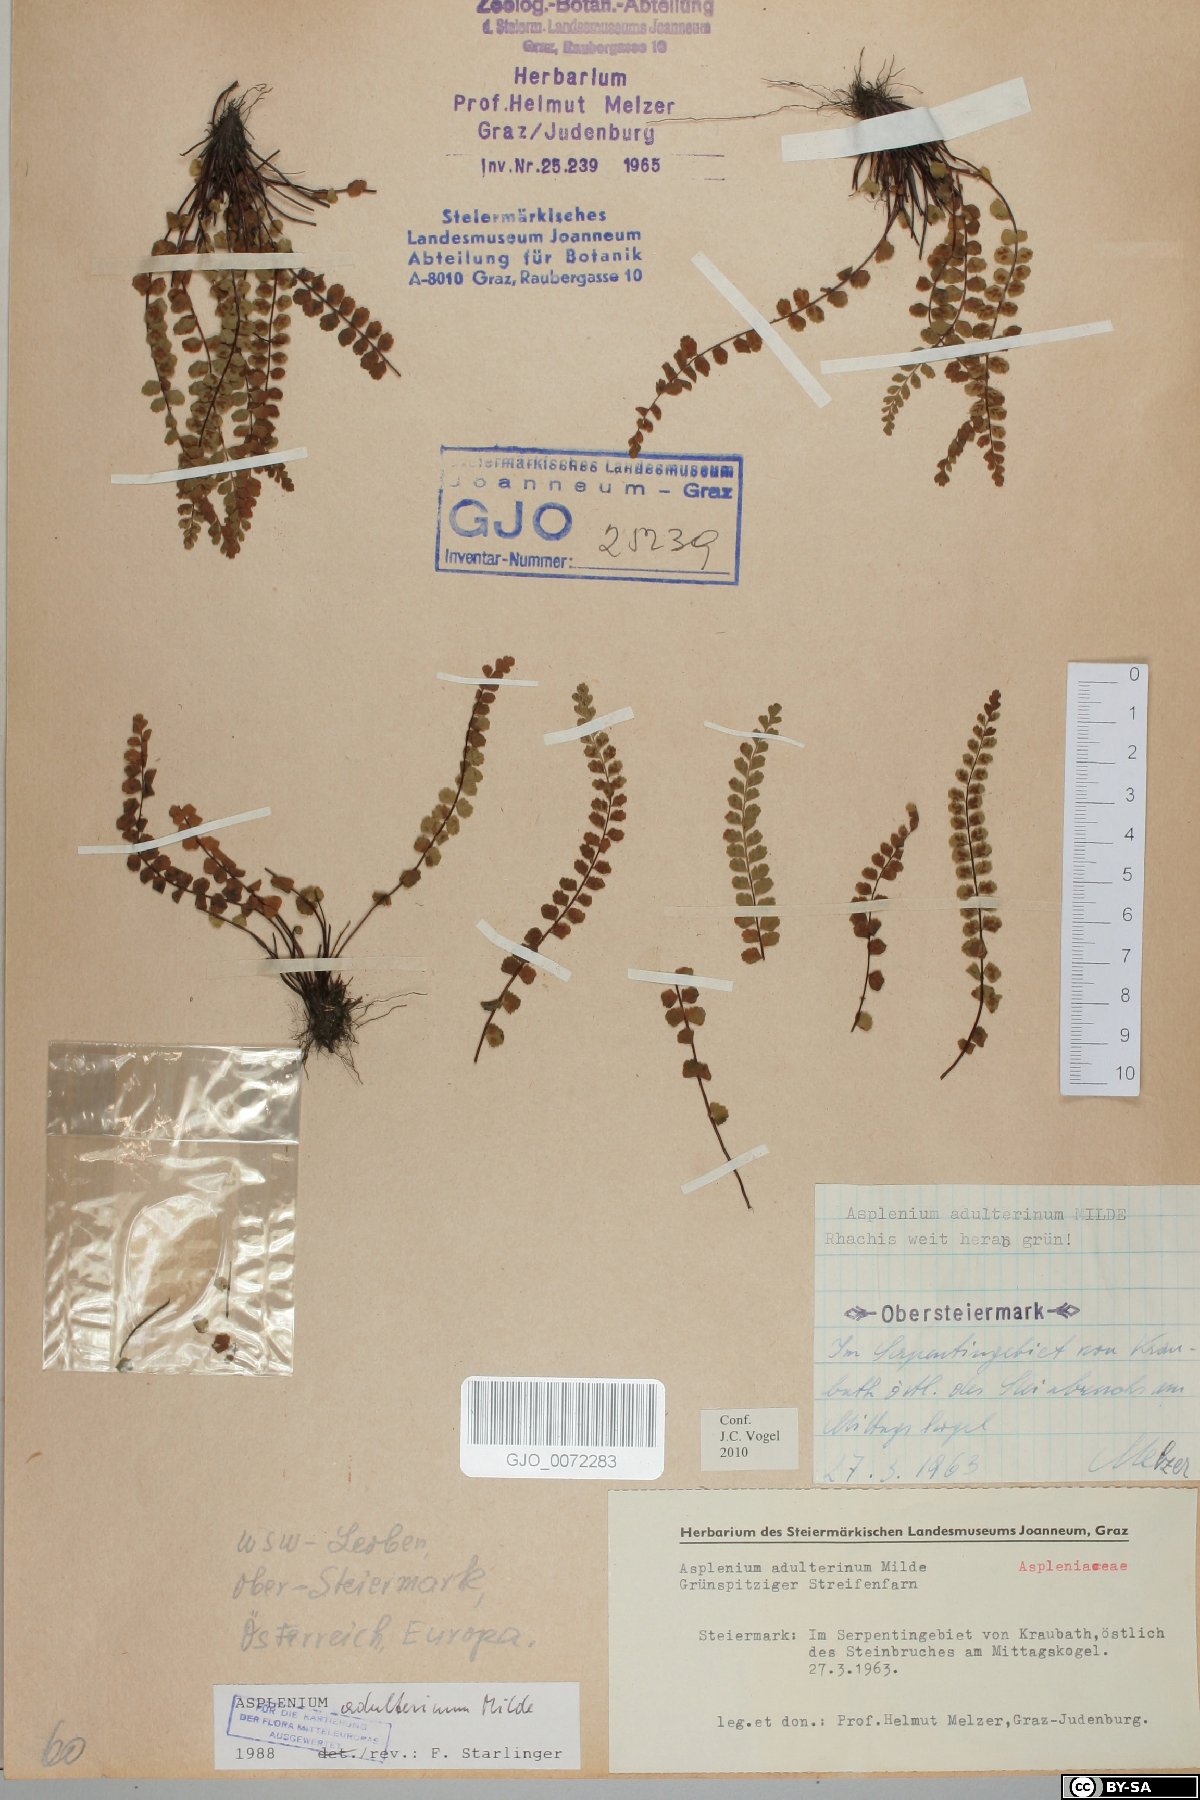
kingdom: Plantae
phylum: Tracheophyta
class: Polypodiopsida
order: Polypodiales
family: Aspleniaceae
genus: Asplenium
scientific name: Asplenium adulterinum
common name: Adulterated spleenwort
